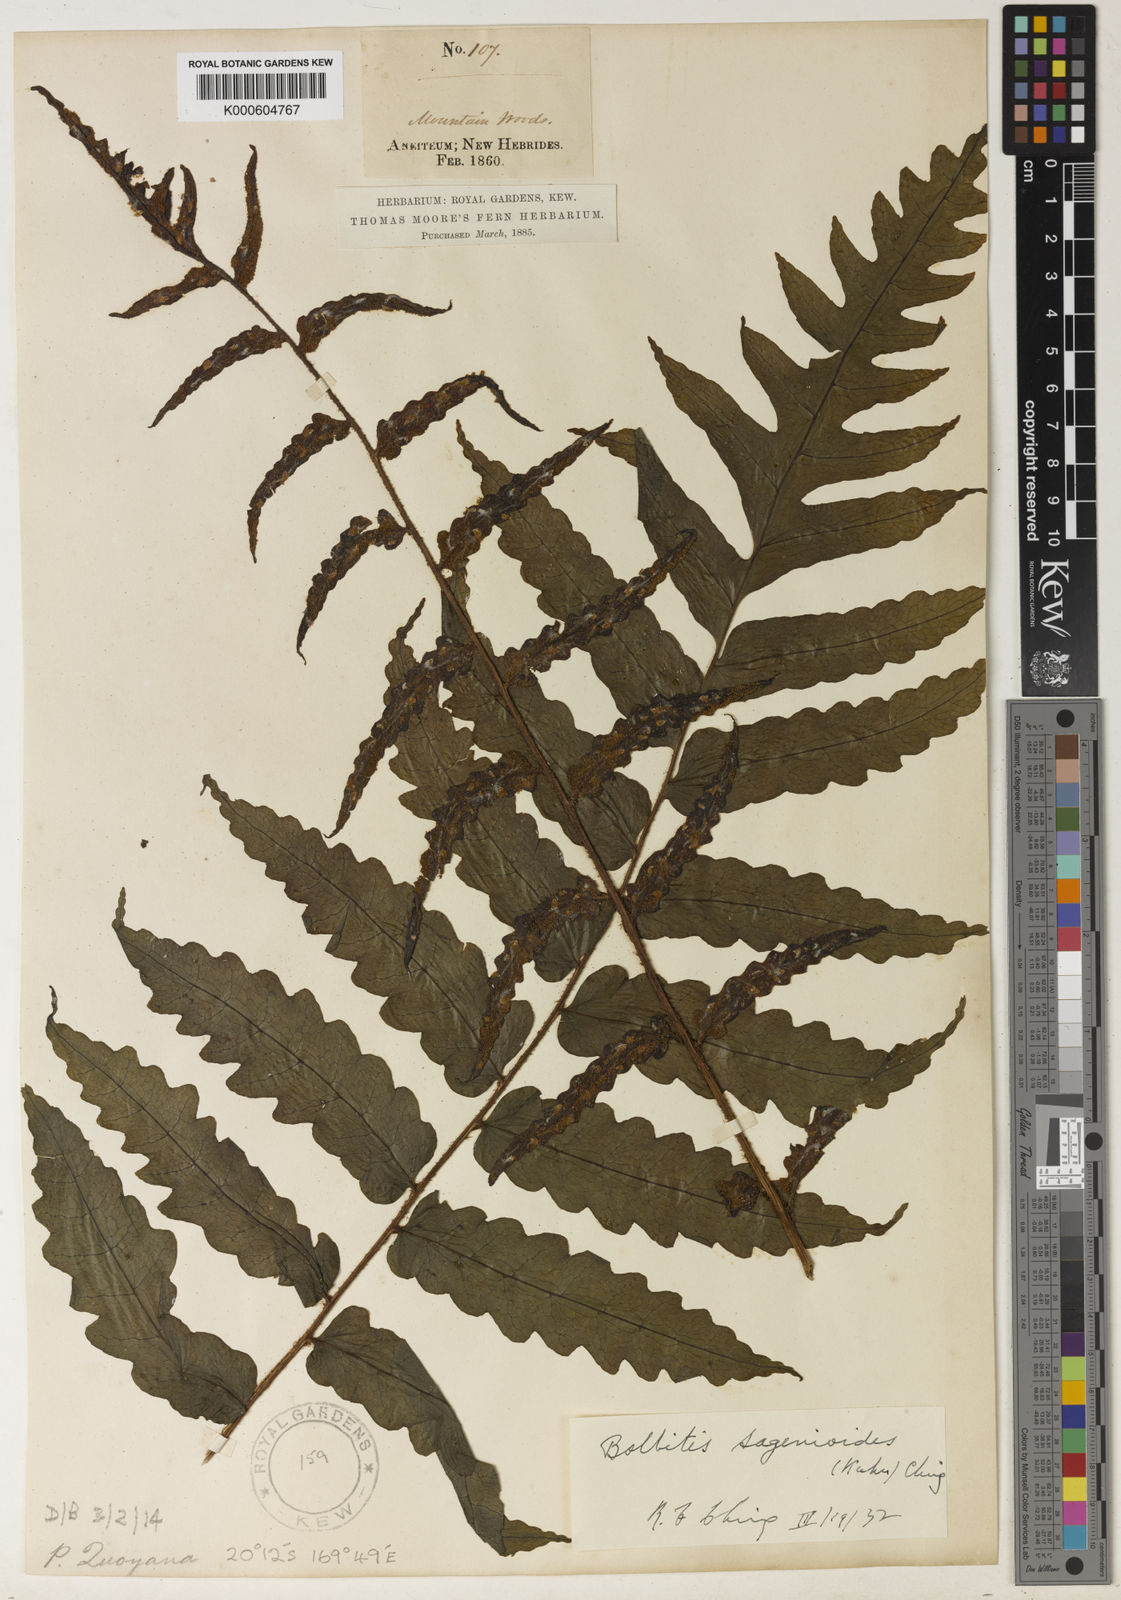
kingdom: Plantae
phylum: Tracheophyta
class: Polypodiopsida
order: Polypodiales
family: Dryopteridaceae
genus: Bolbitis
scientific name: Bolbitis quoyana
